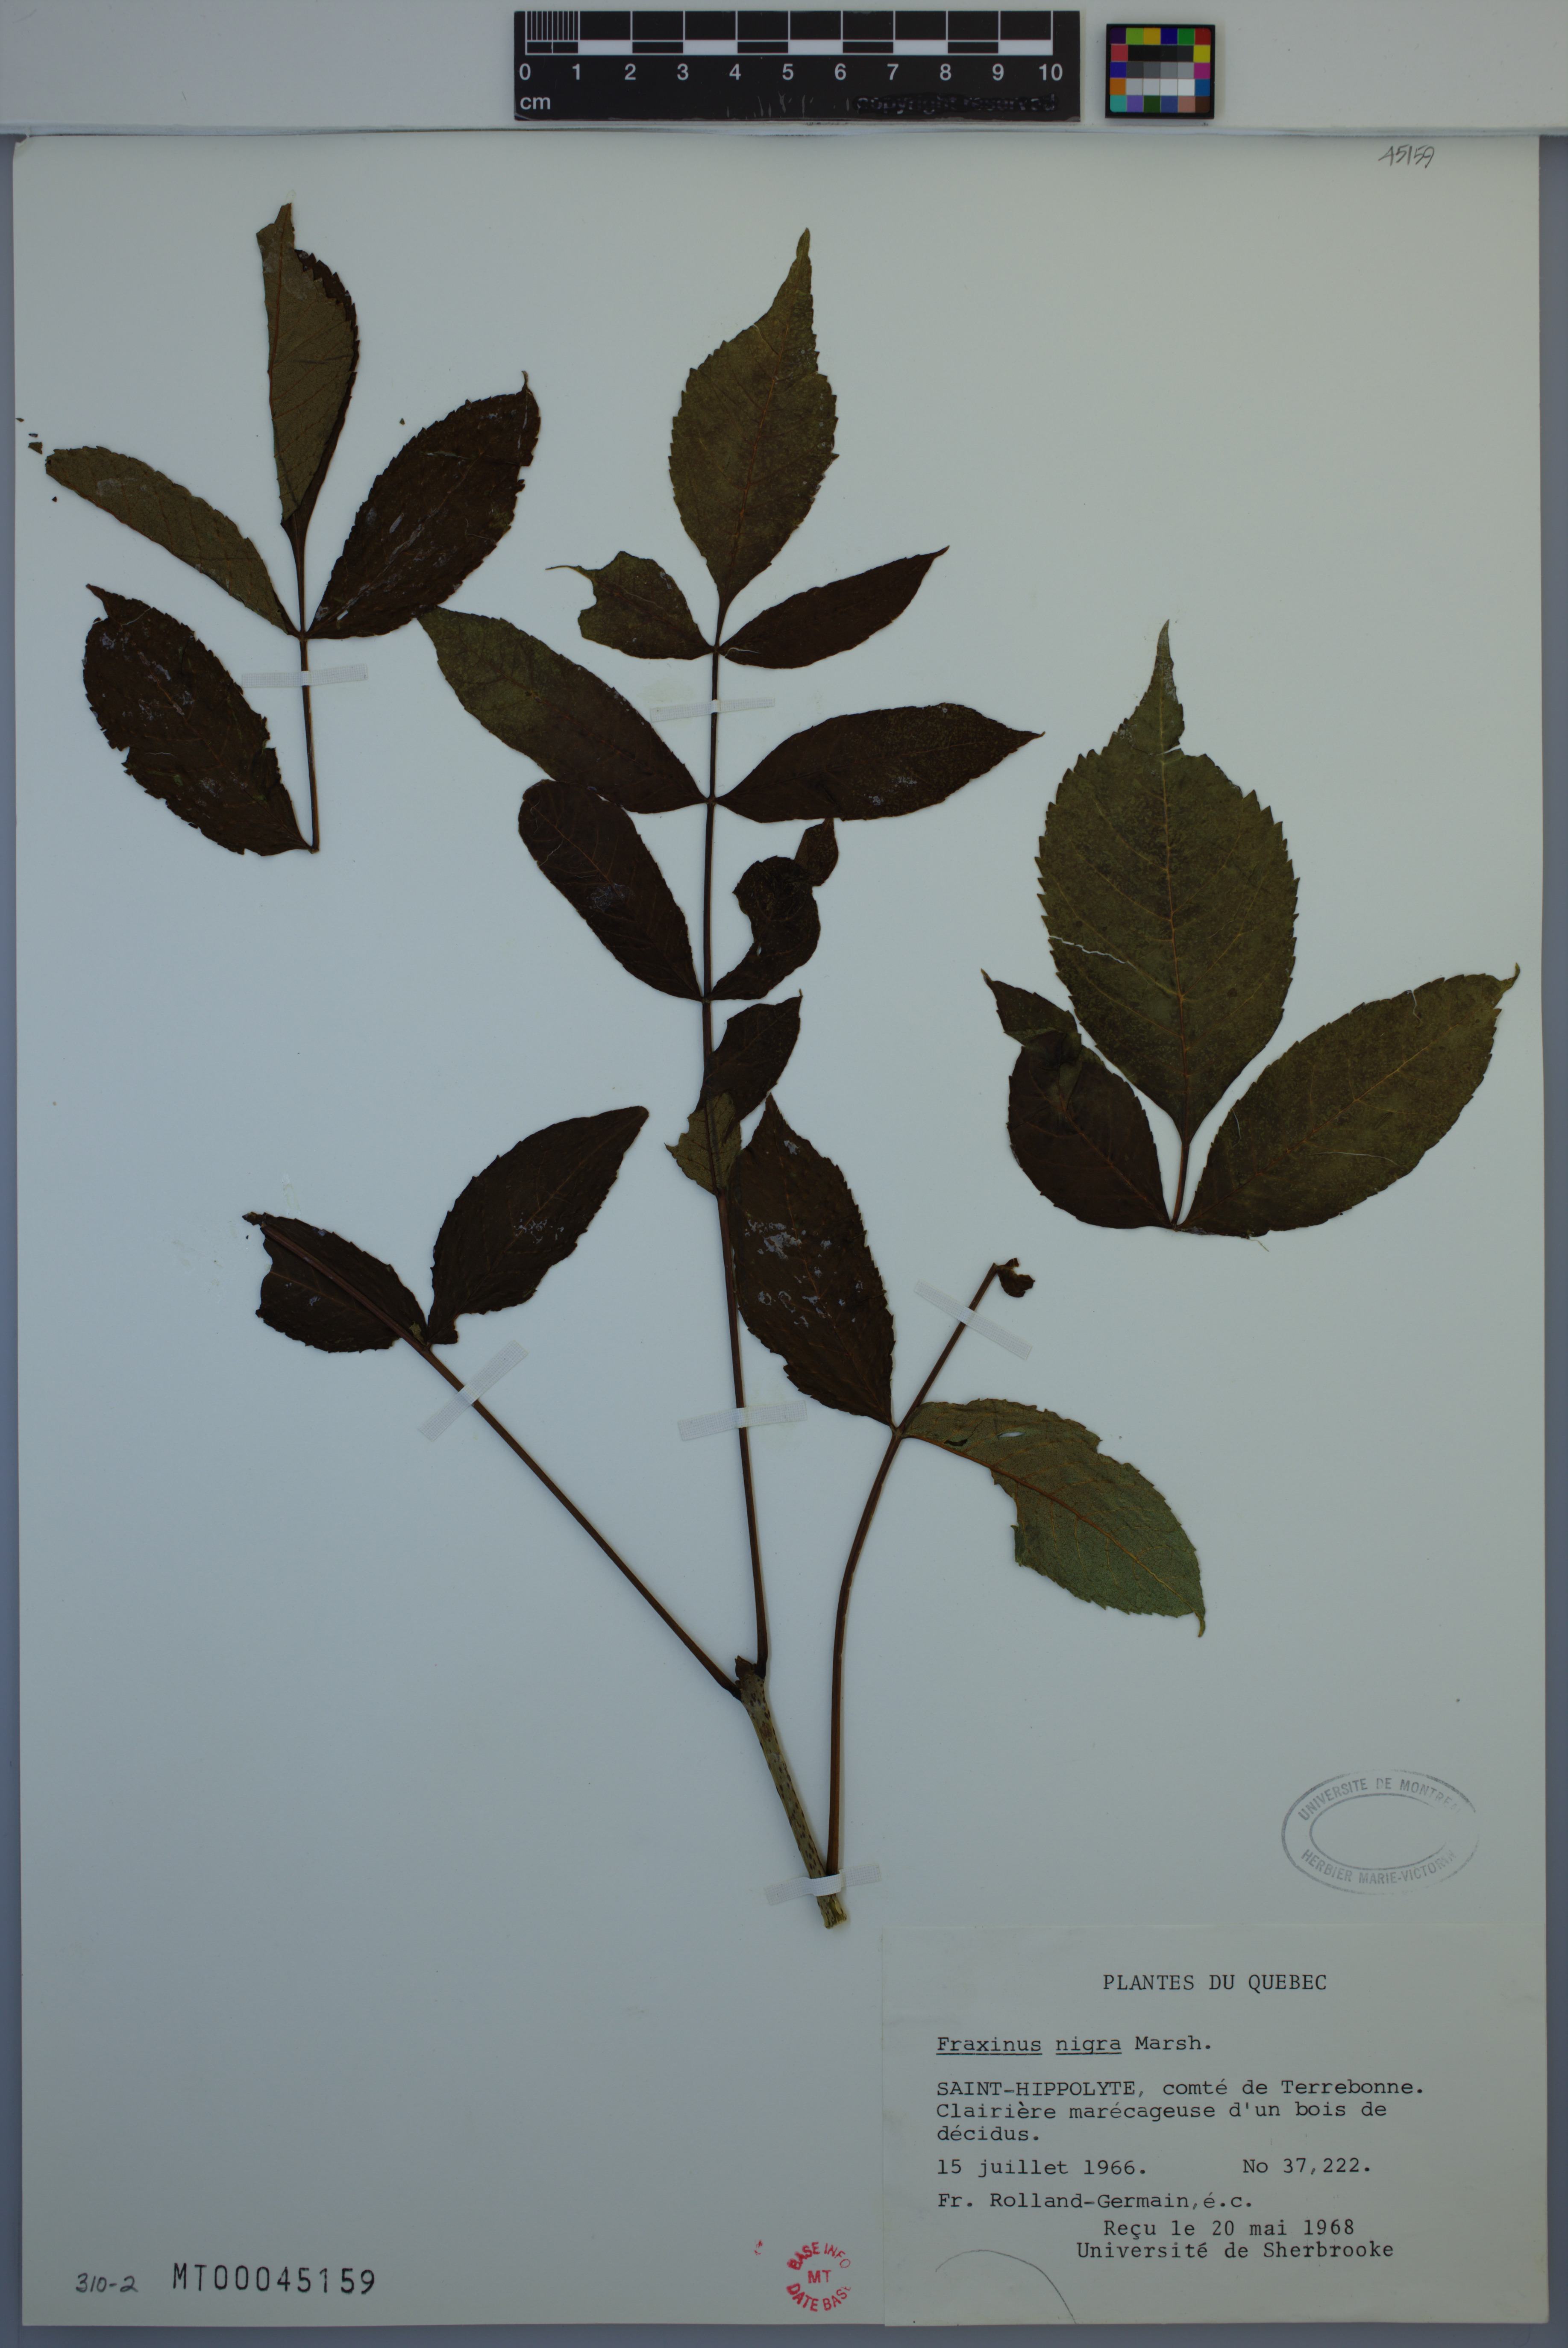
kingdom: Plantae
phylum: Tracheophyta
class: Magnoliopsida
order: Lamiales
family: Oleaceae
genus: Fraxinus
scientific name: Fraxinus nigra
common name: Black ash
